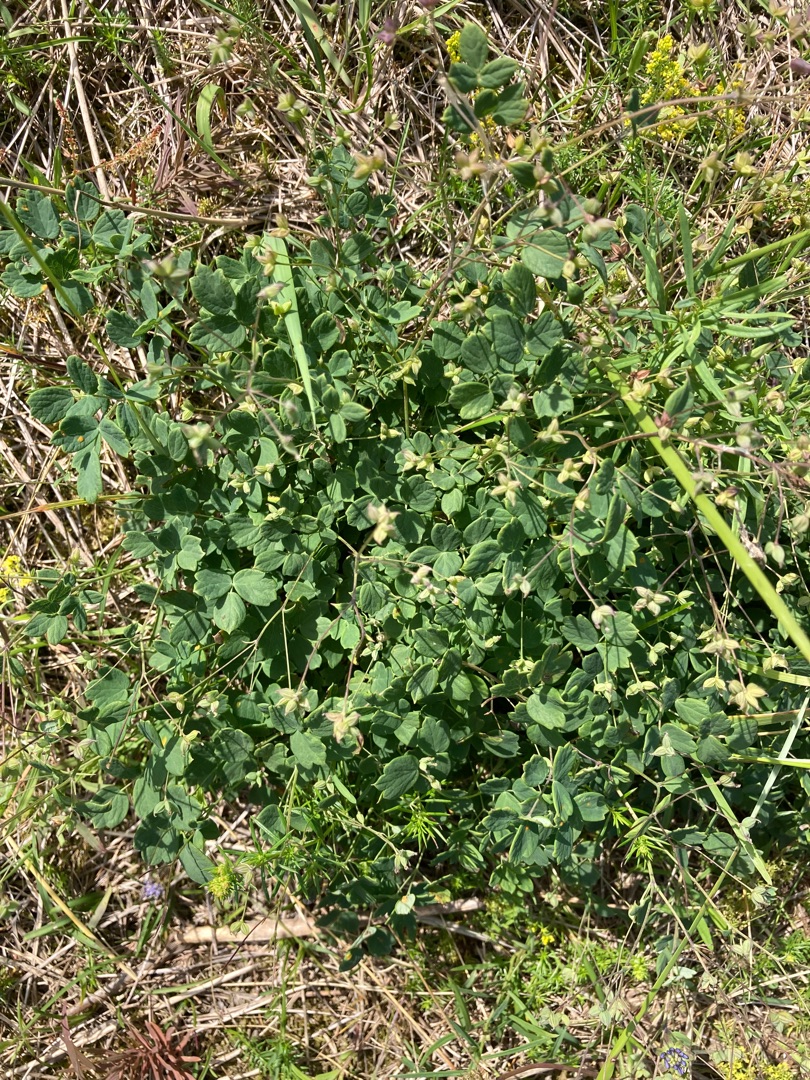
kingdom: Plantae
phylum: Tracheophyta
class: Magnoliopsida
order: Ranunculales
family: Ranunculaceae
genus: Thalictrum
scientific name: Thalictrum minus
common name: Liden frøstjerne
